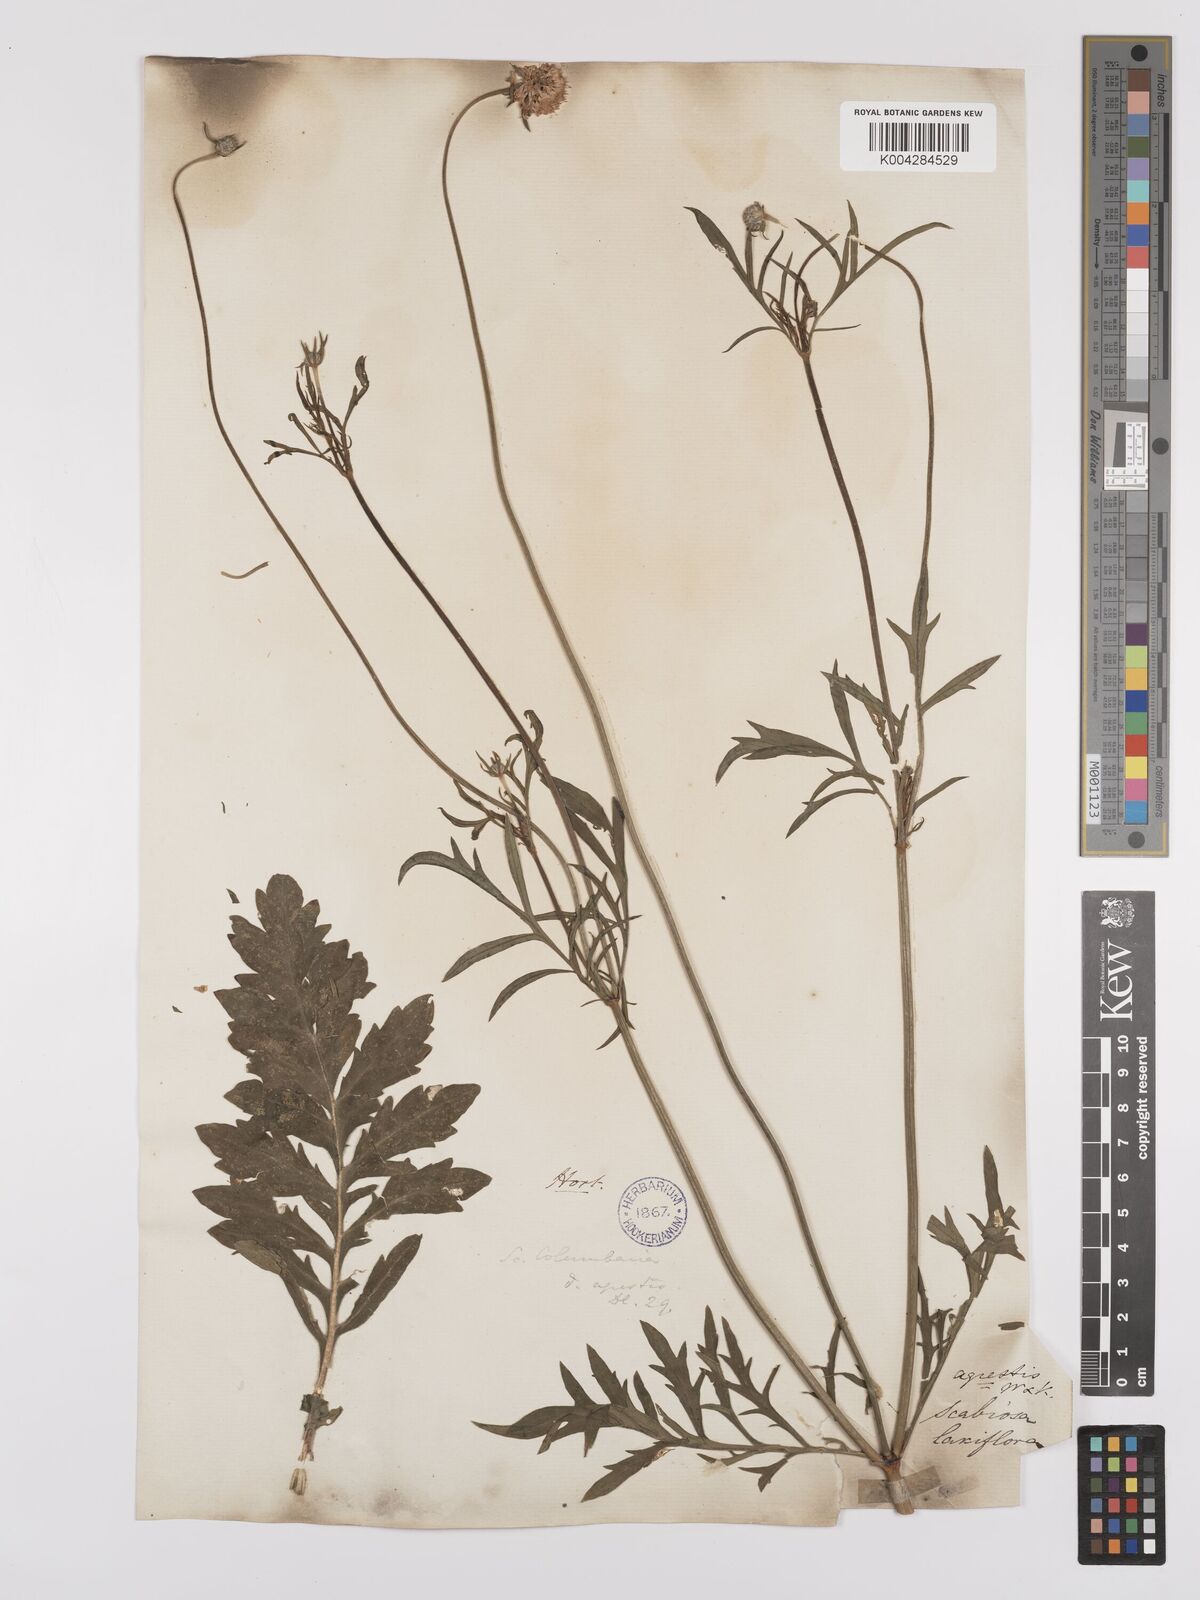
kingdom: Plantae
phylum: Tracheophyta
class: Magnoliopsida
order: Dipsacales
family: Caprifoliaceae
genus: Scabiosa
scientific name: Scabiosa triandra
